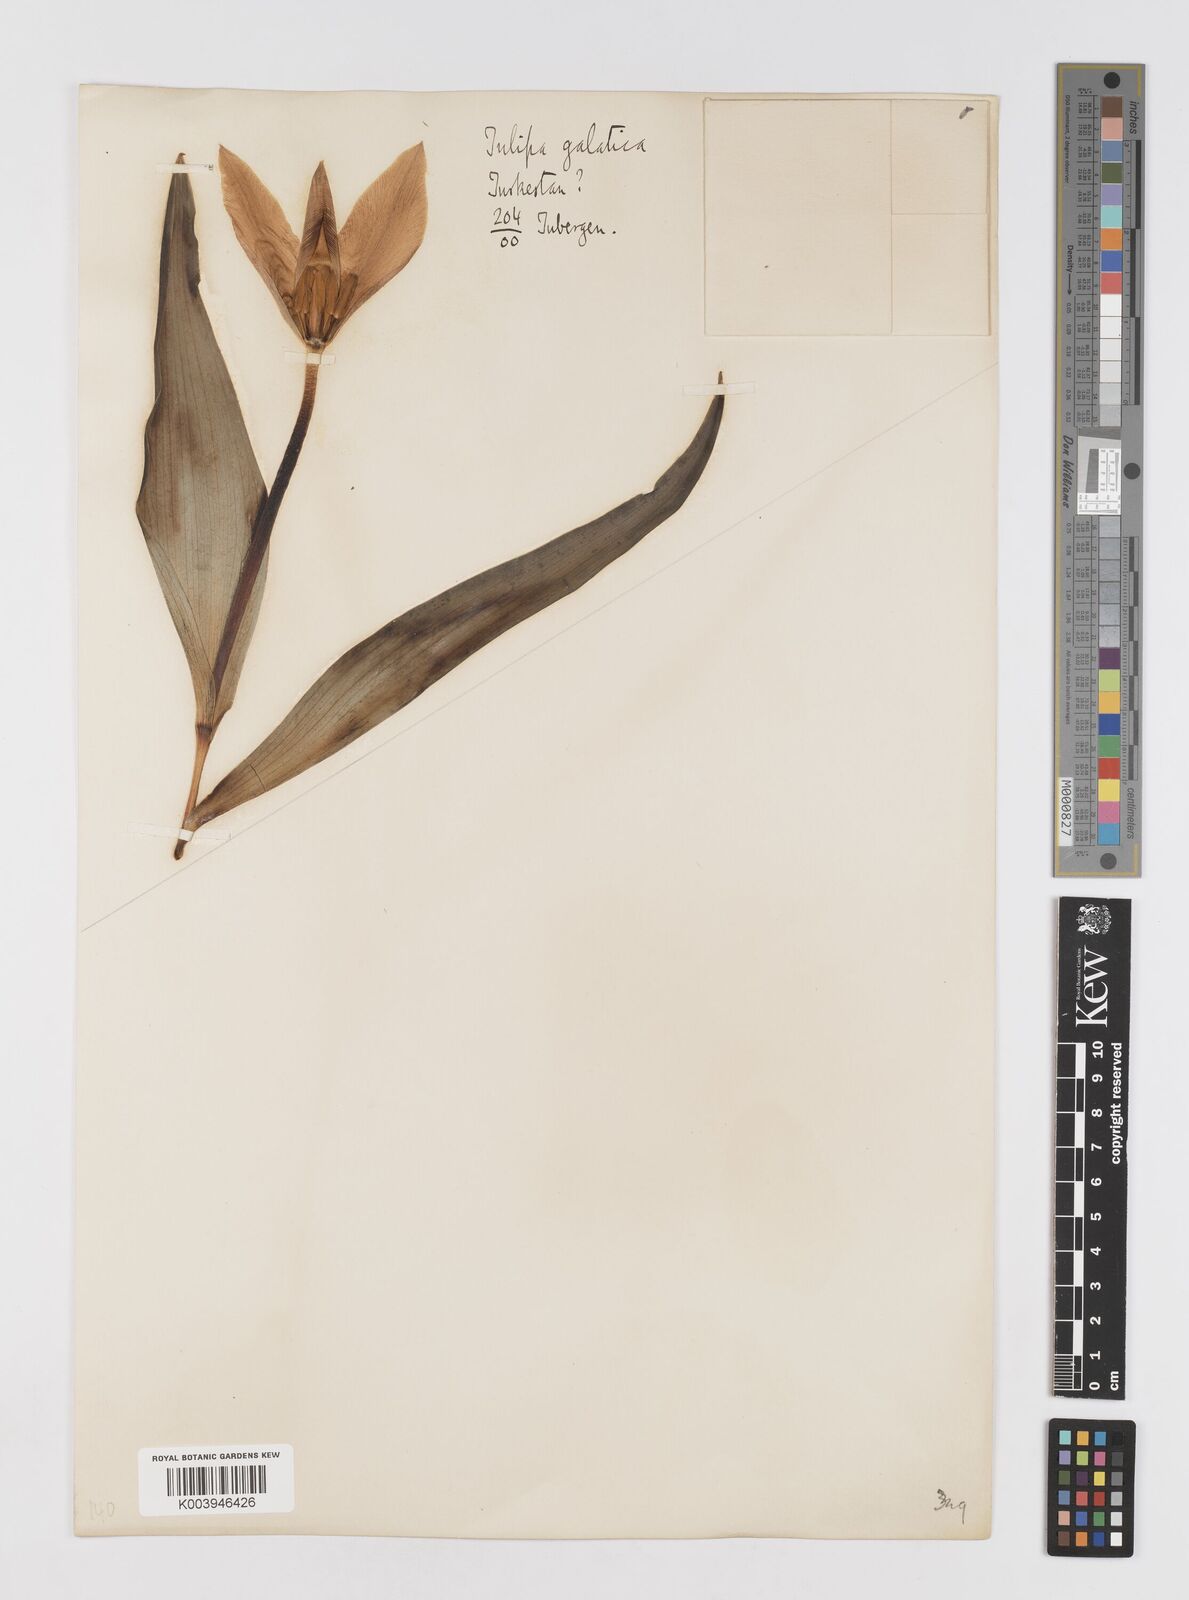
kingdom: Plantae
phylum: Tracheophyta
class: Liliopsida
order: Liliales
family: Liliaceae
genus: Tulipa
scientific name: Tulipa
